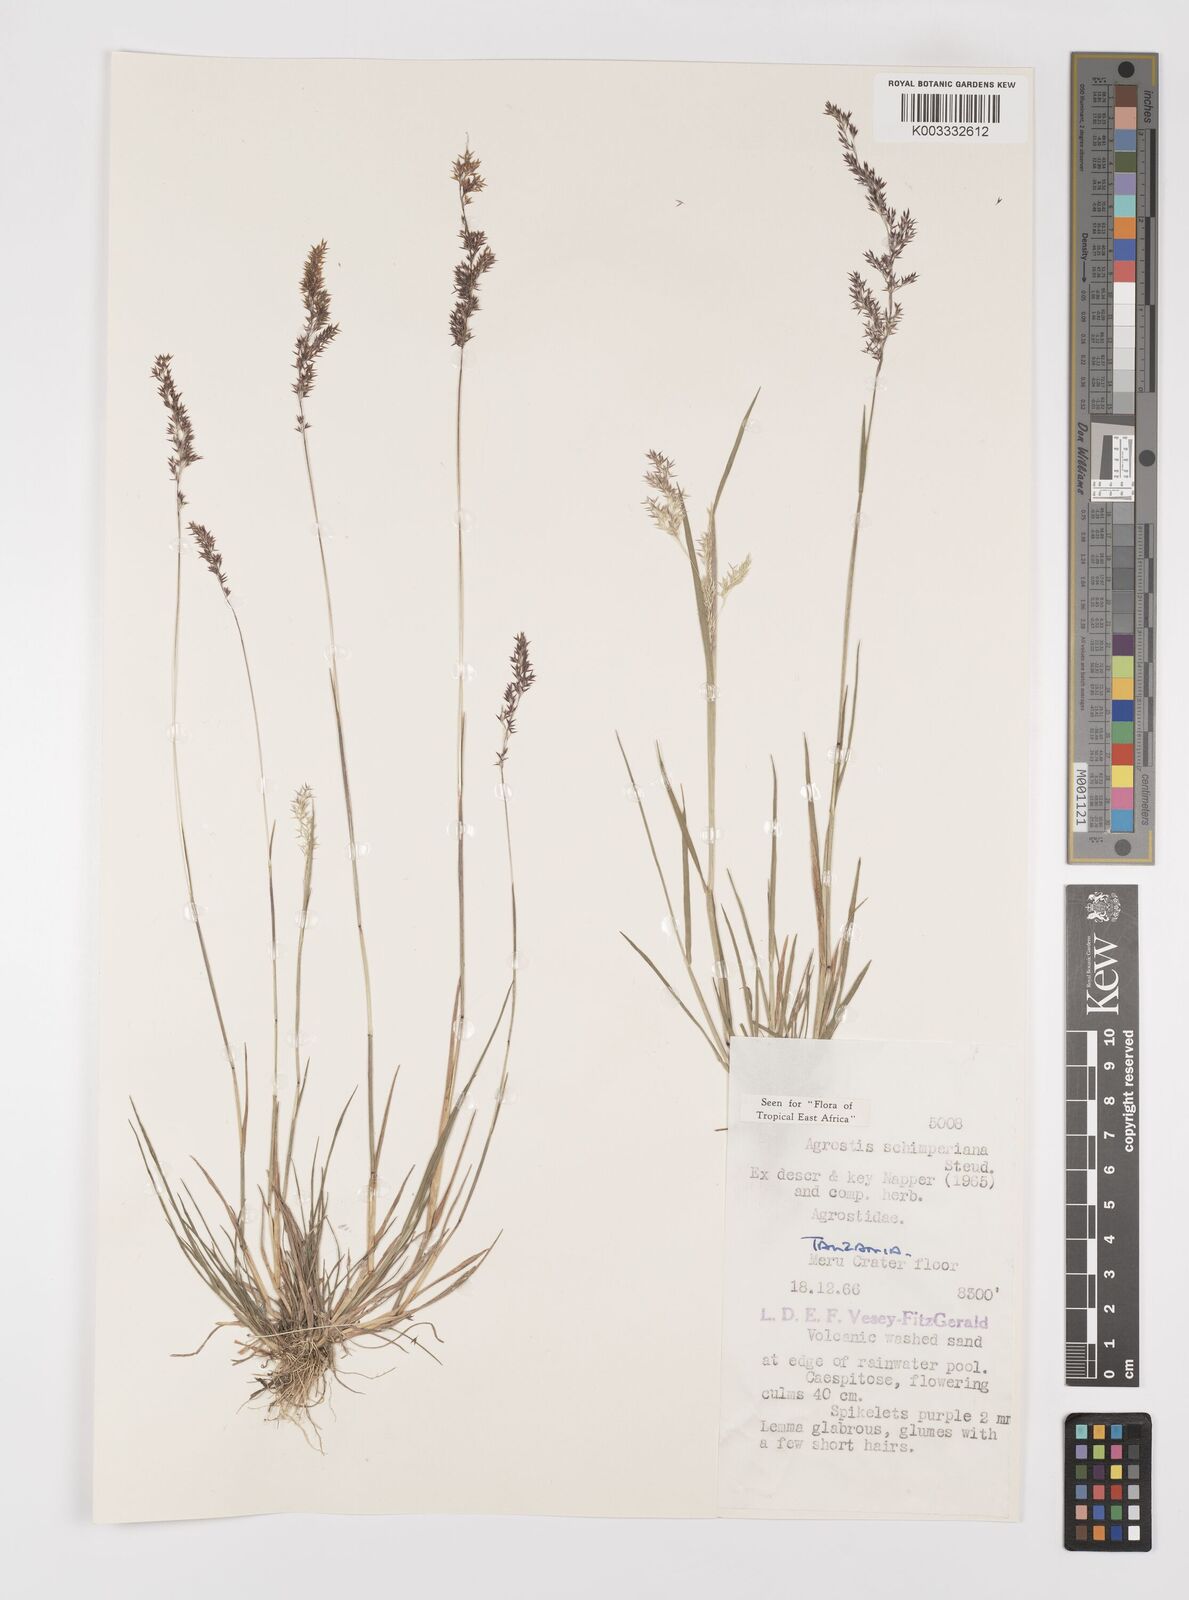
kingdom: Plantae
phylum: Tracheophyta
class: Liliopsida
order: Poales
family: Poaceae
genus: Polypogon
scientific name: Polypogon schimperianus
